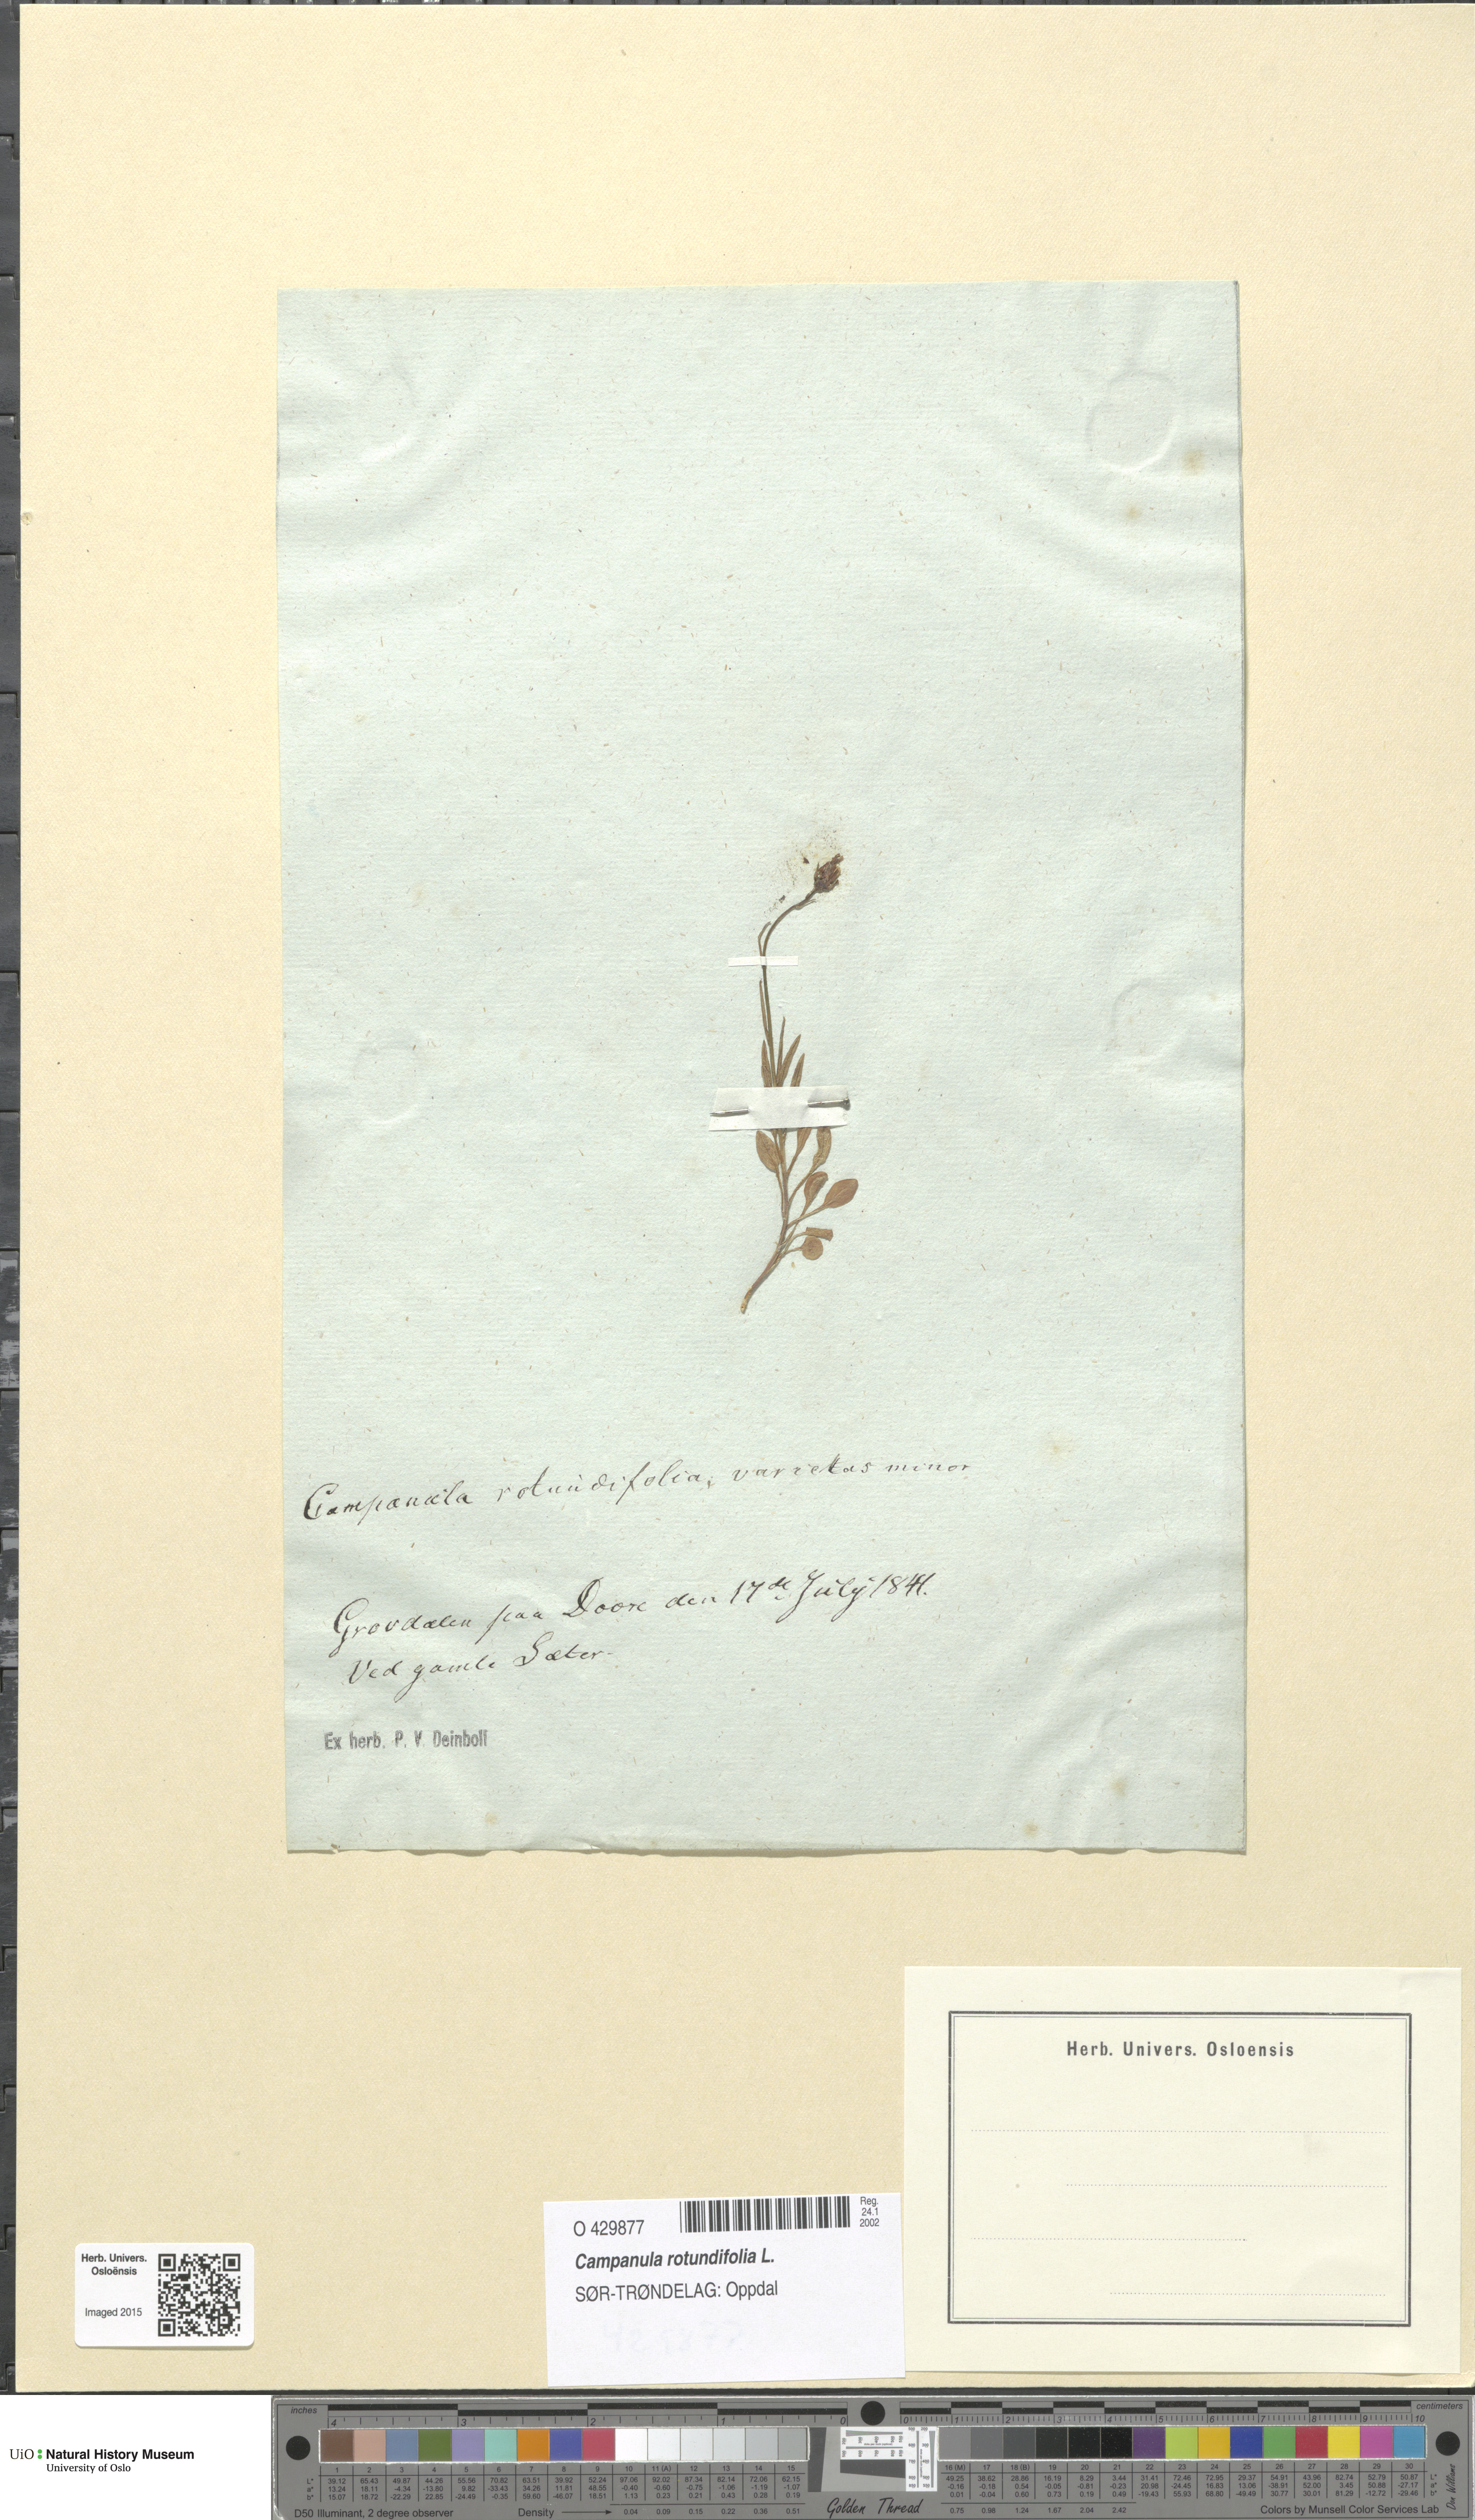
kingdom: Plantae
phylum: Tracheophyta
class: Magnoliopsida
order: Asterales
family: Campanulaceae
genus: Campanula
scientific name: Campanula rotundifolia
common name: Harebell
